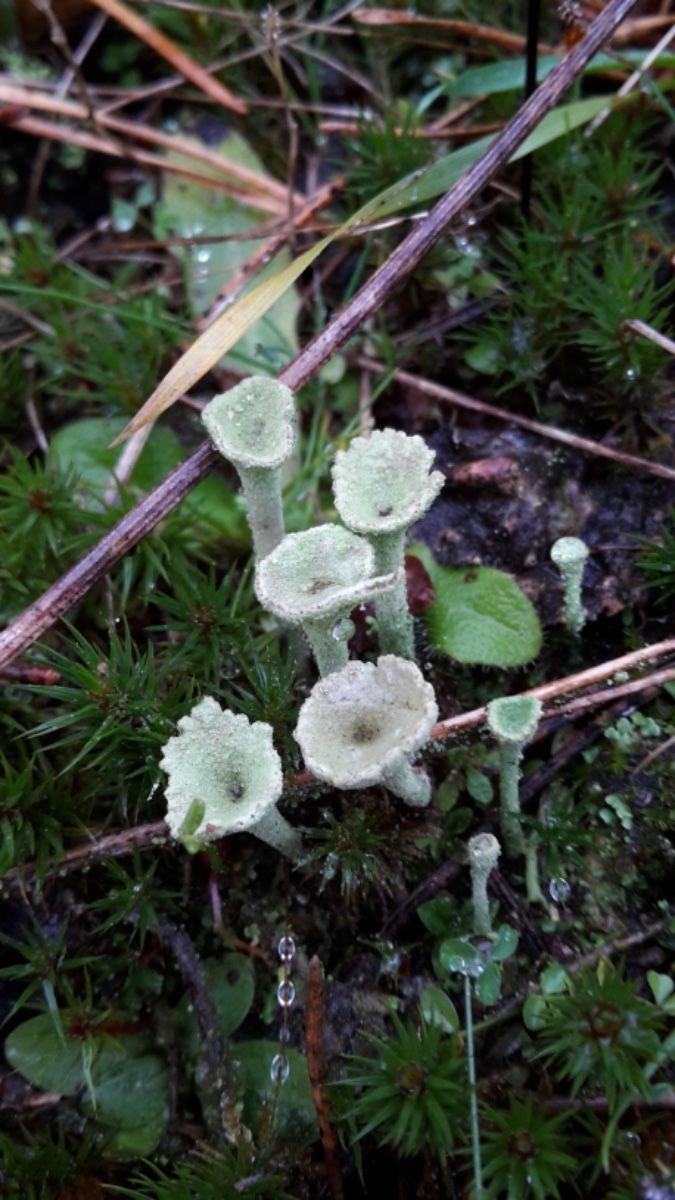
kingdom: Fungi
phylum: Ascomycota
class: Lecanoromycetes
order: Lecanorales
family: Cladoniaceae
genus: Cladonia
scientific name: Cladonia
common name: brungrøn bægerlav
